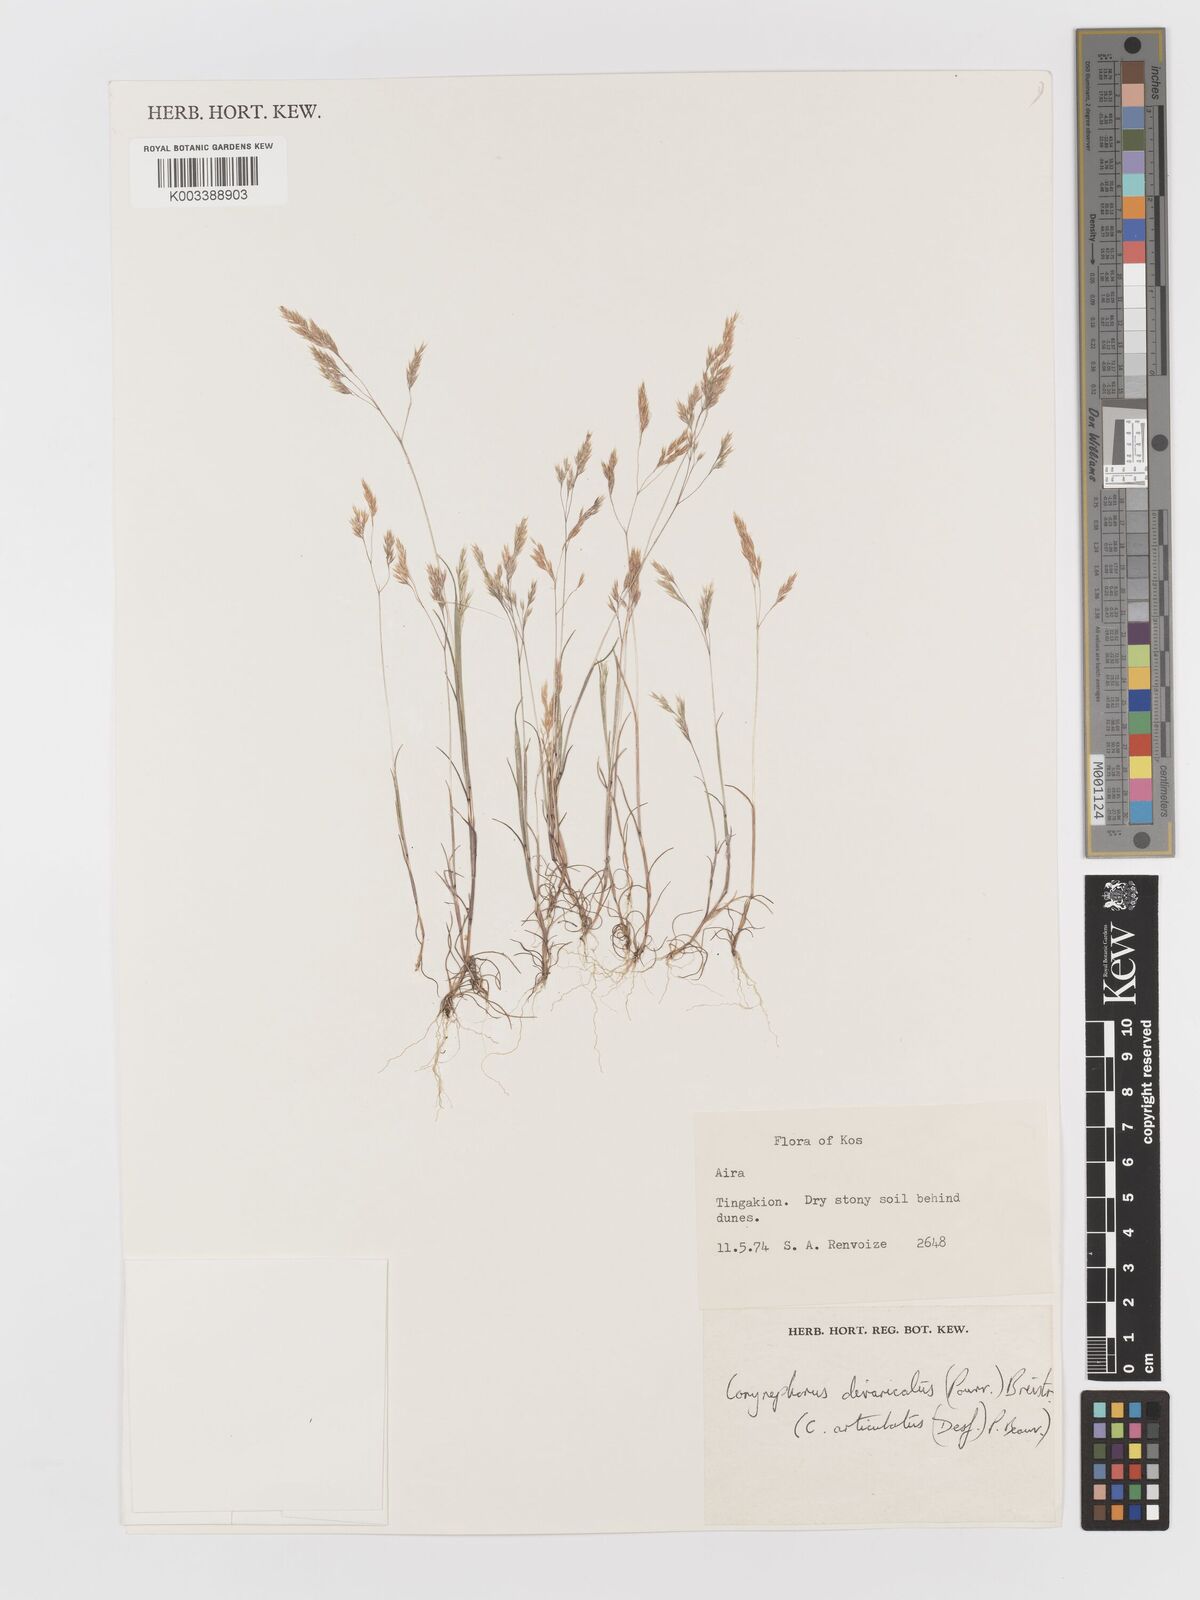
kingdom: Plantae
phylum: Tracheophyta
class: Liliopsida
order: Poales
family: Poaceae
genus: Corynephorus
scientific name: Corynephorus divaricatus
